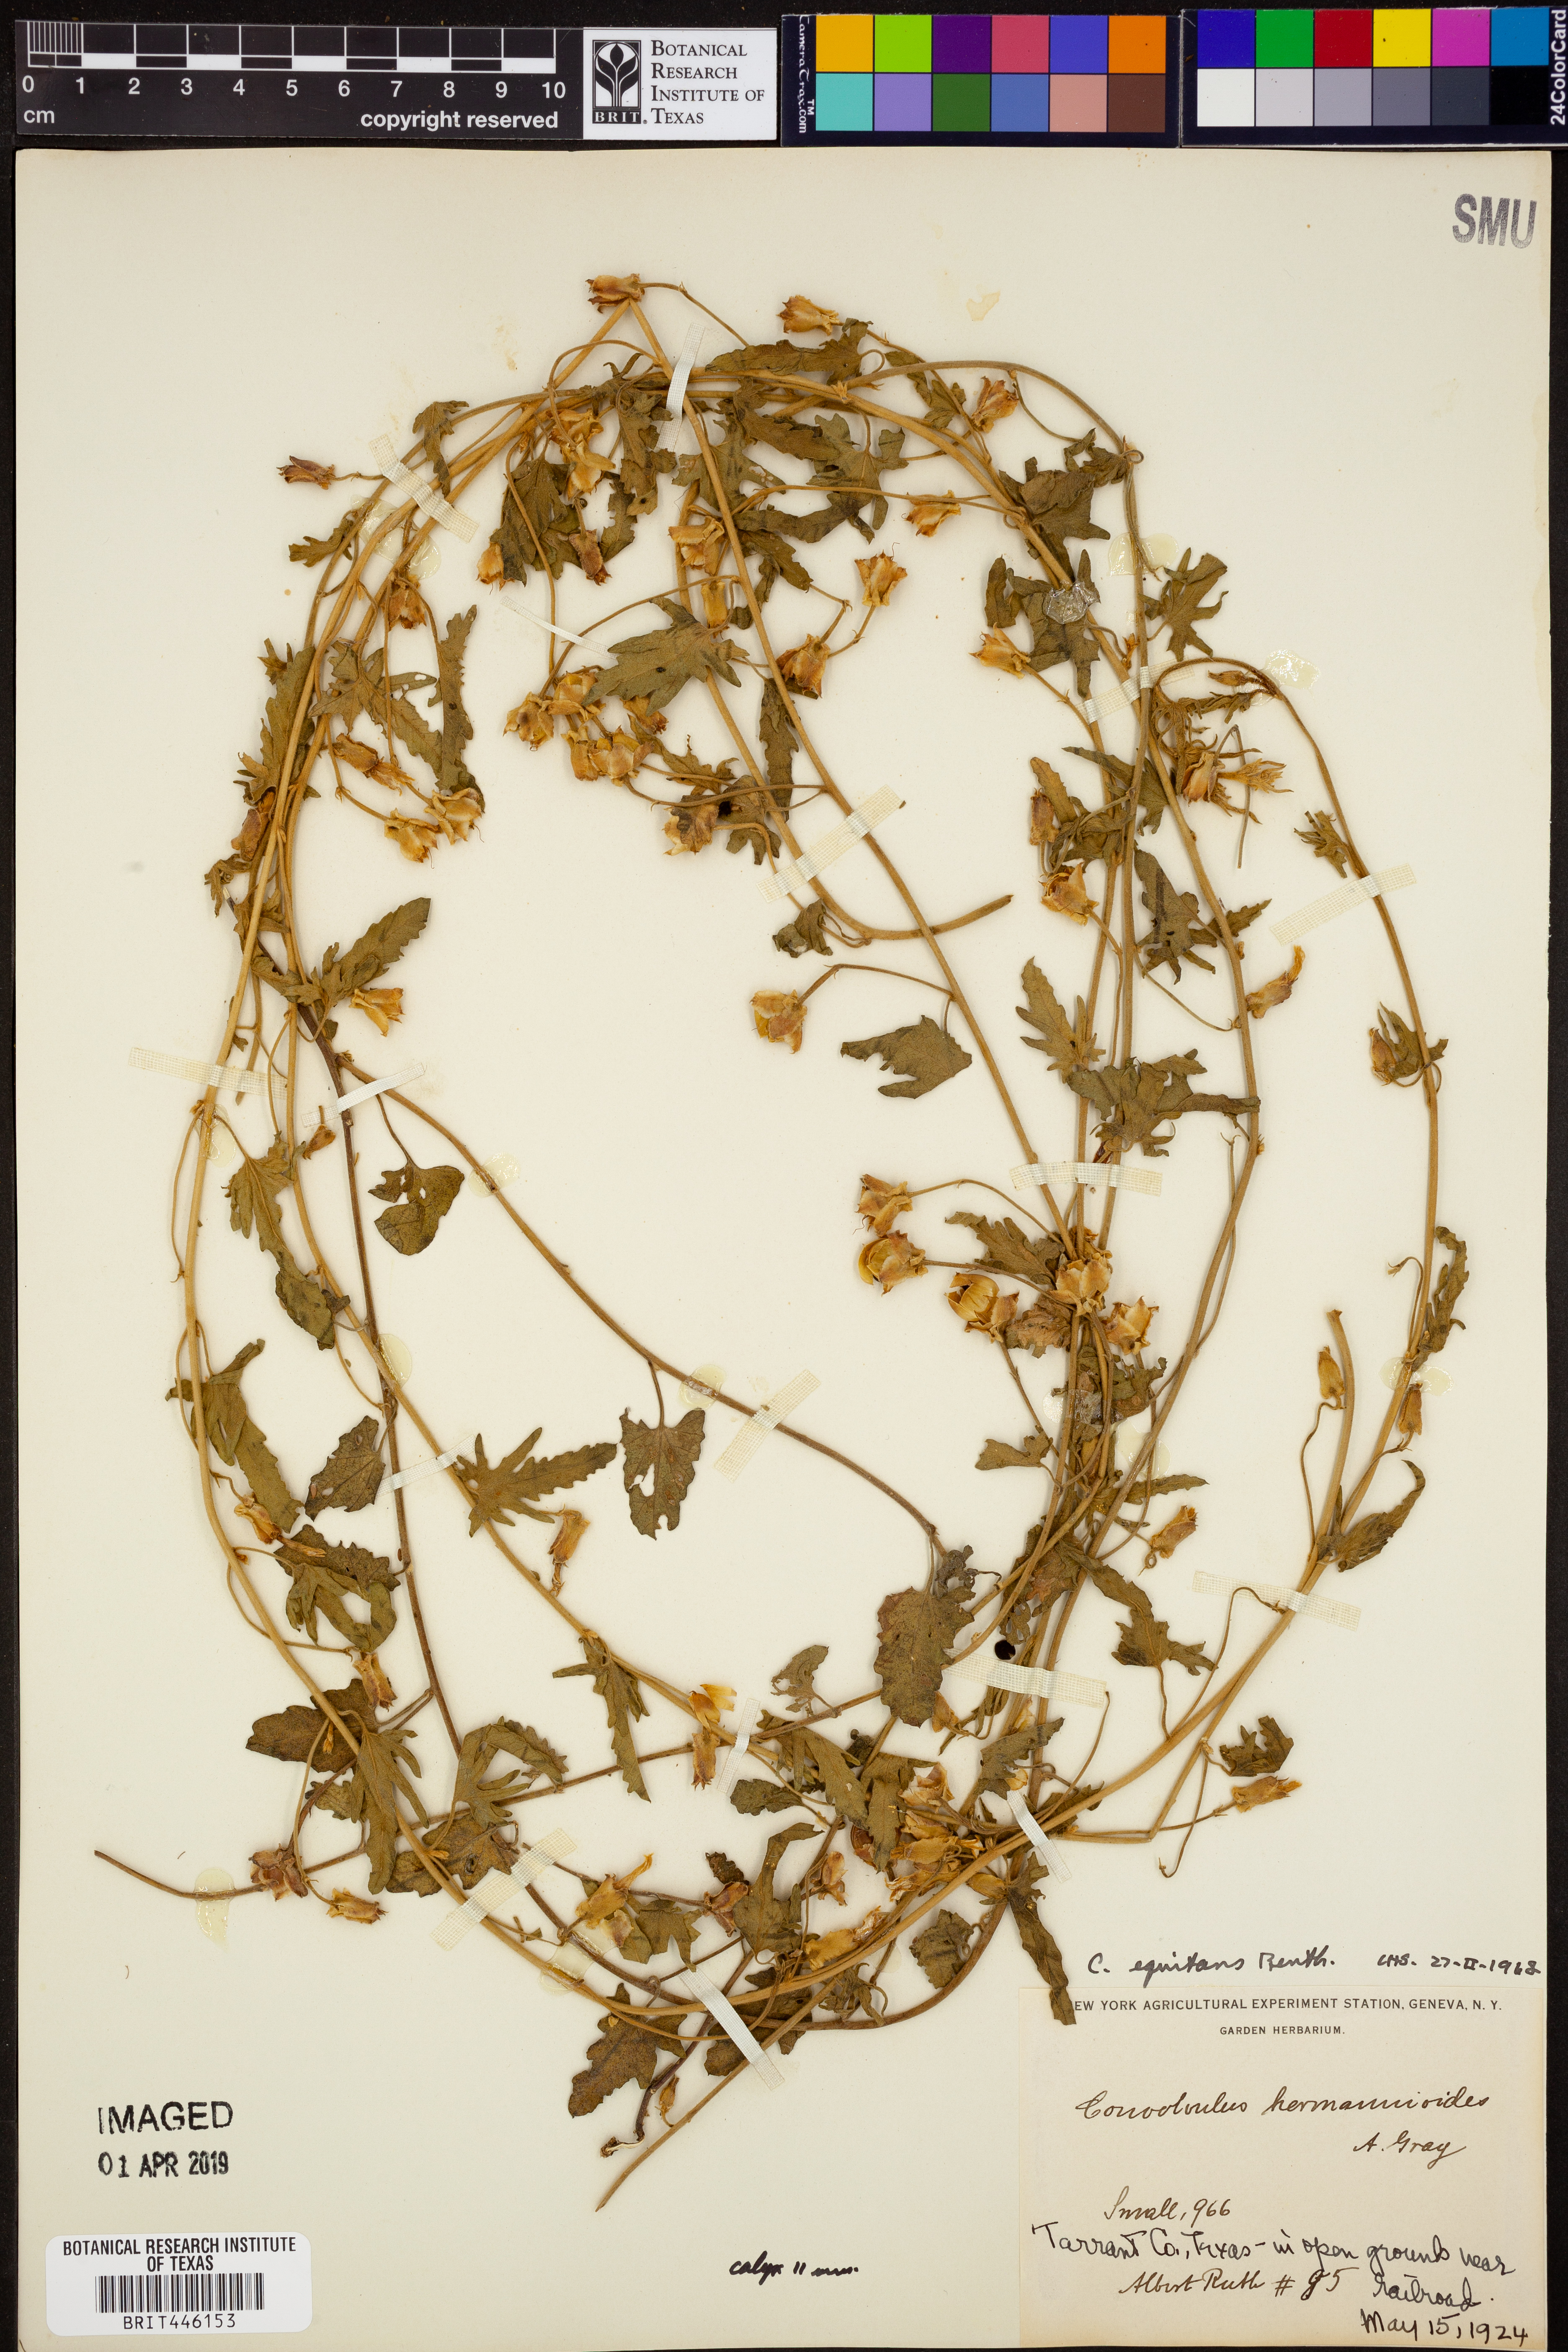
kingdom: Plantae
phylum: Tracheophyta
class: Magnoliopsida
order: Solanales
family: Convolvulaceae
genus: Convolvulus
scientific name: Convolvulus equitans
